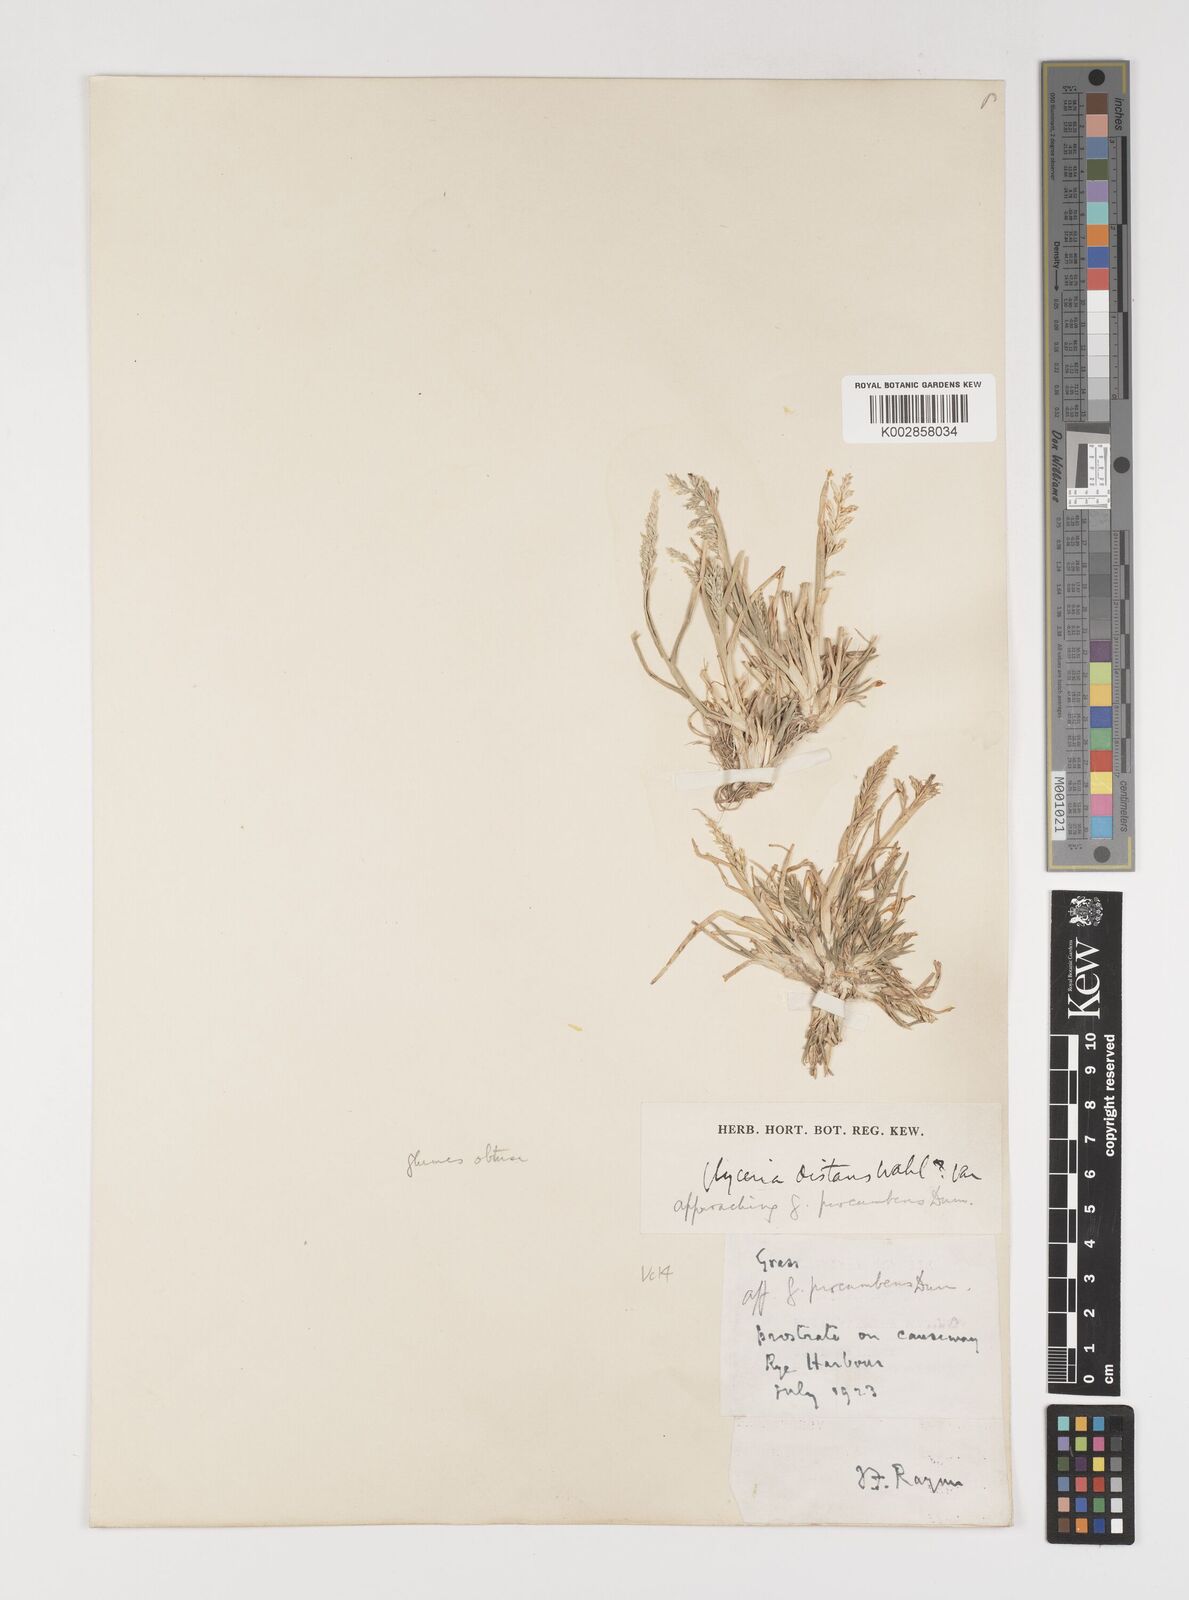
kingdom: Plantae
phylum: Tracheophyta
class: Liliopsida
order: Poales
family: Poaceae
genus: Puccinellia
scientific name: Puccinellia rupestris
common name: Stiff saltmarsh-grass
